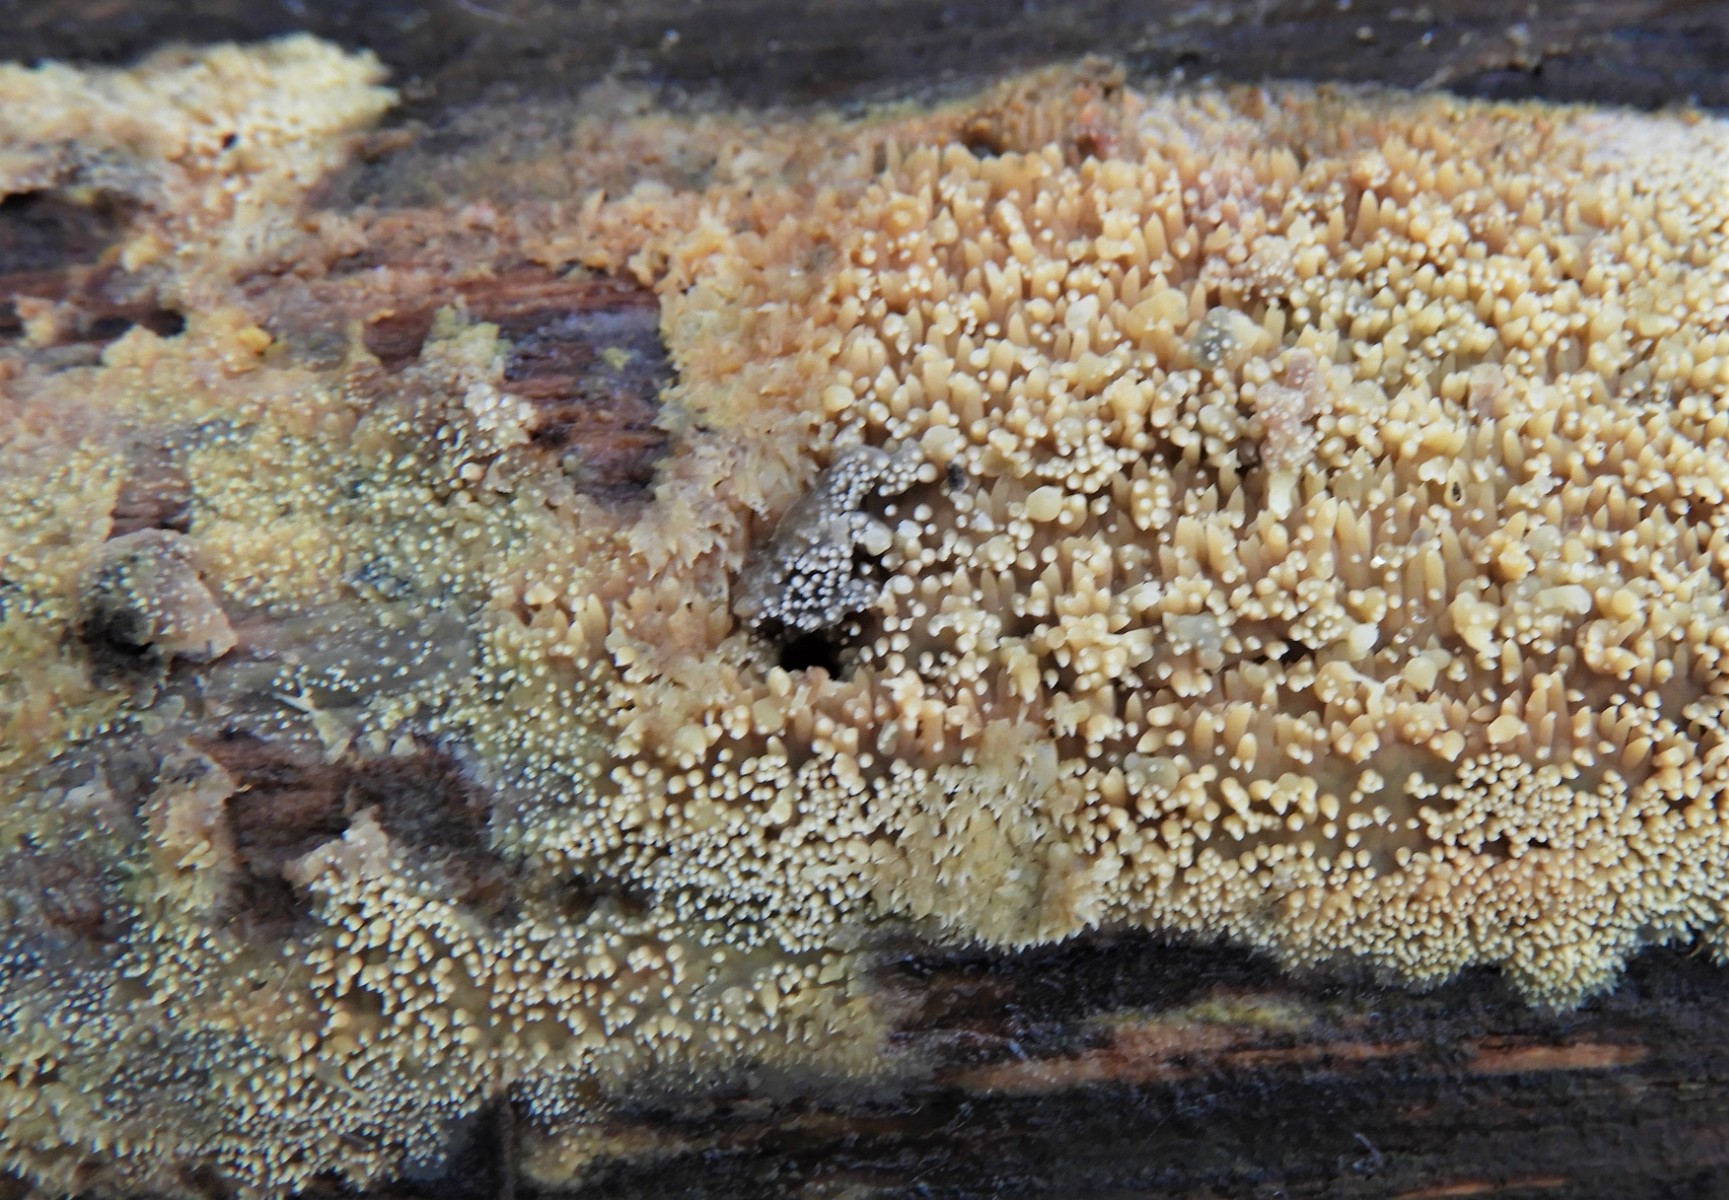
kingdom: Fungi
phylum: Basidiomycota
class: Agaricomycetes
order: Corticiales
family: Corticiaceae
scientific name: Corticiaceae
